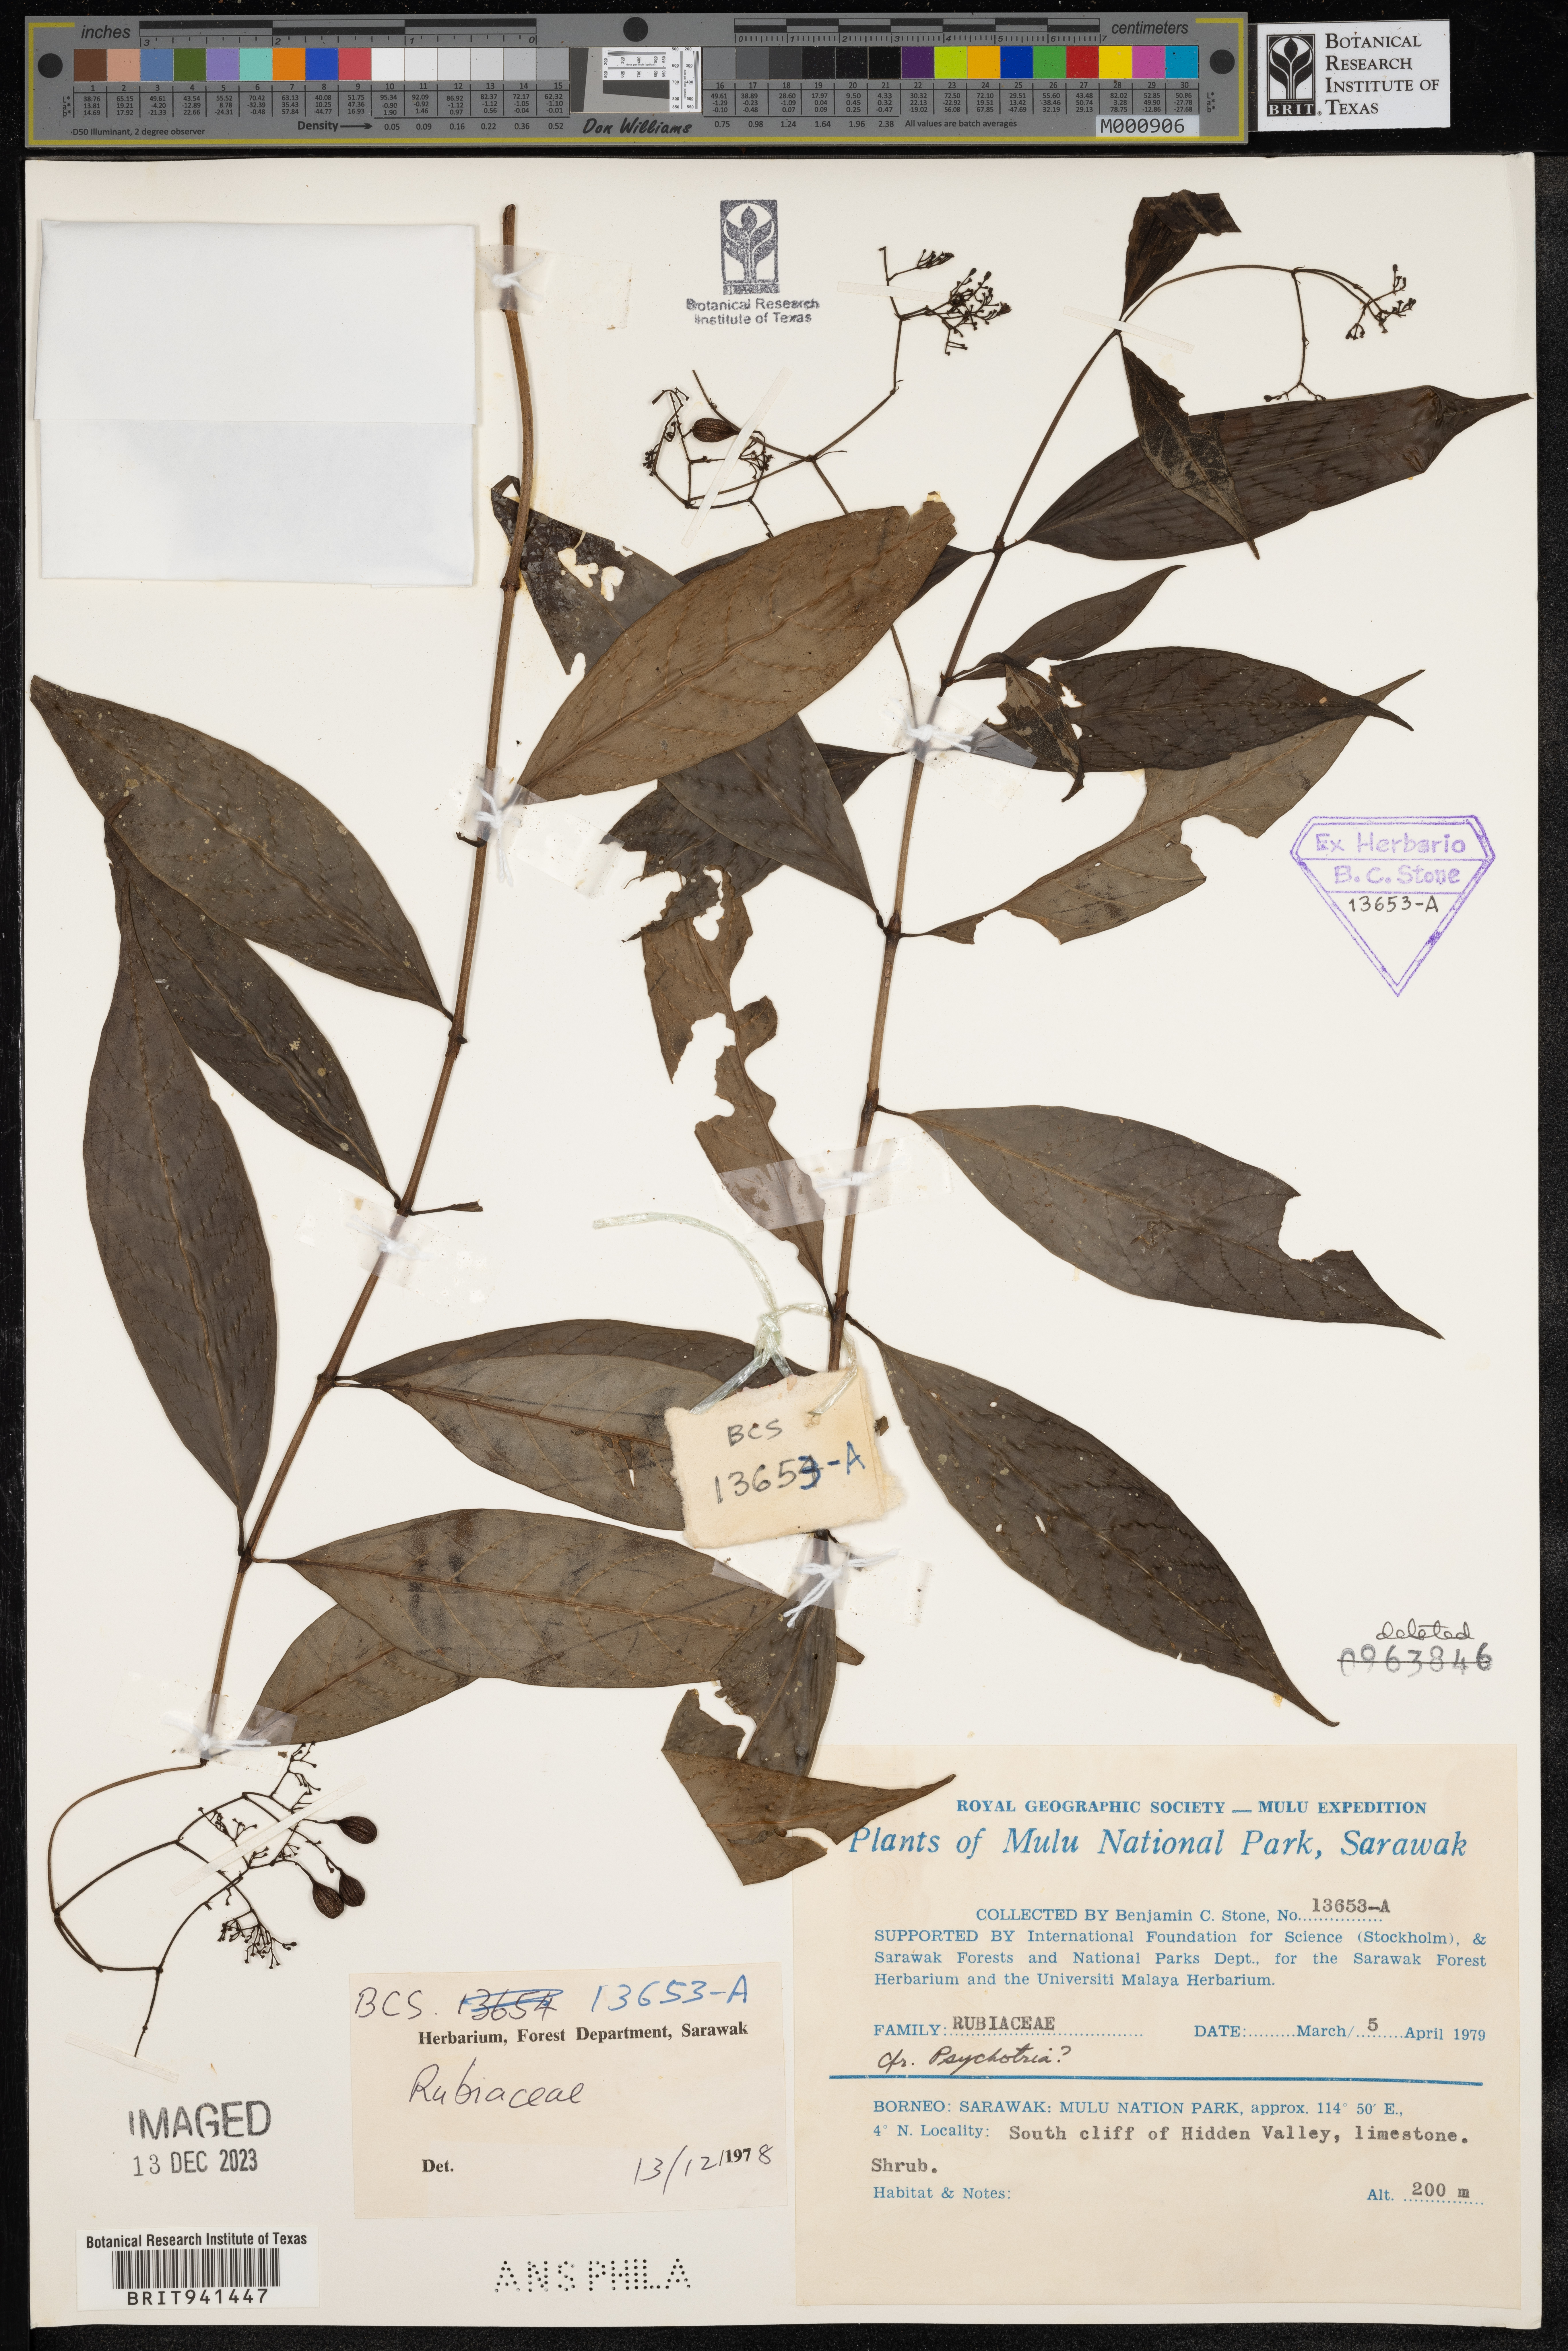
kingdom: Plantae
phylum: Tracheophyta
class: Magnoliopsida
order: Gentianales
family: Rubiaceae
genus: Psychotria
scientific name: Psychotria
